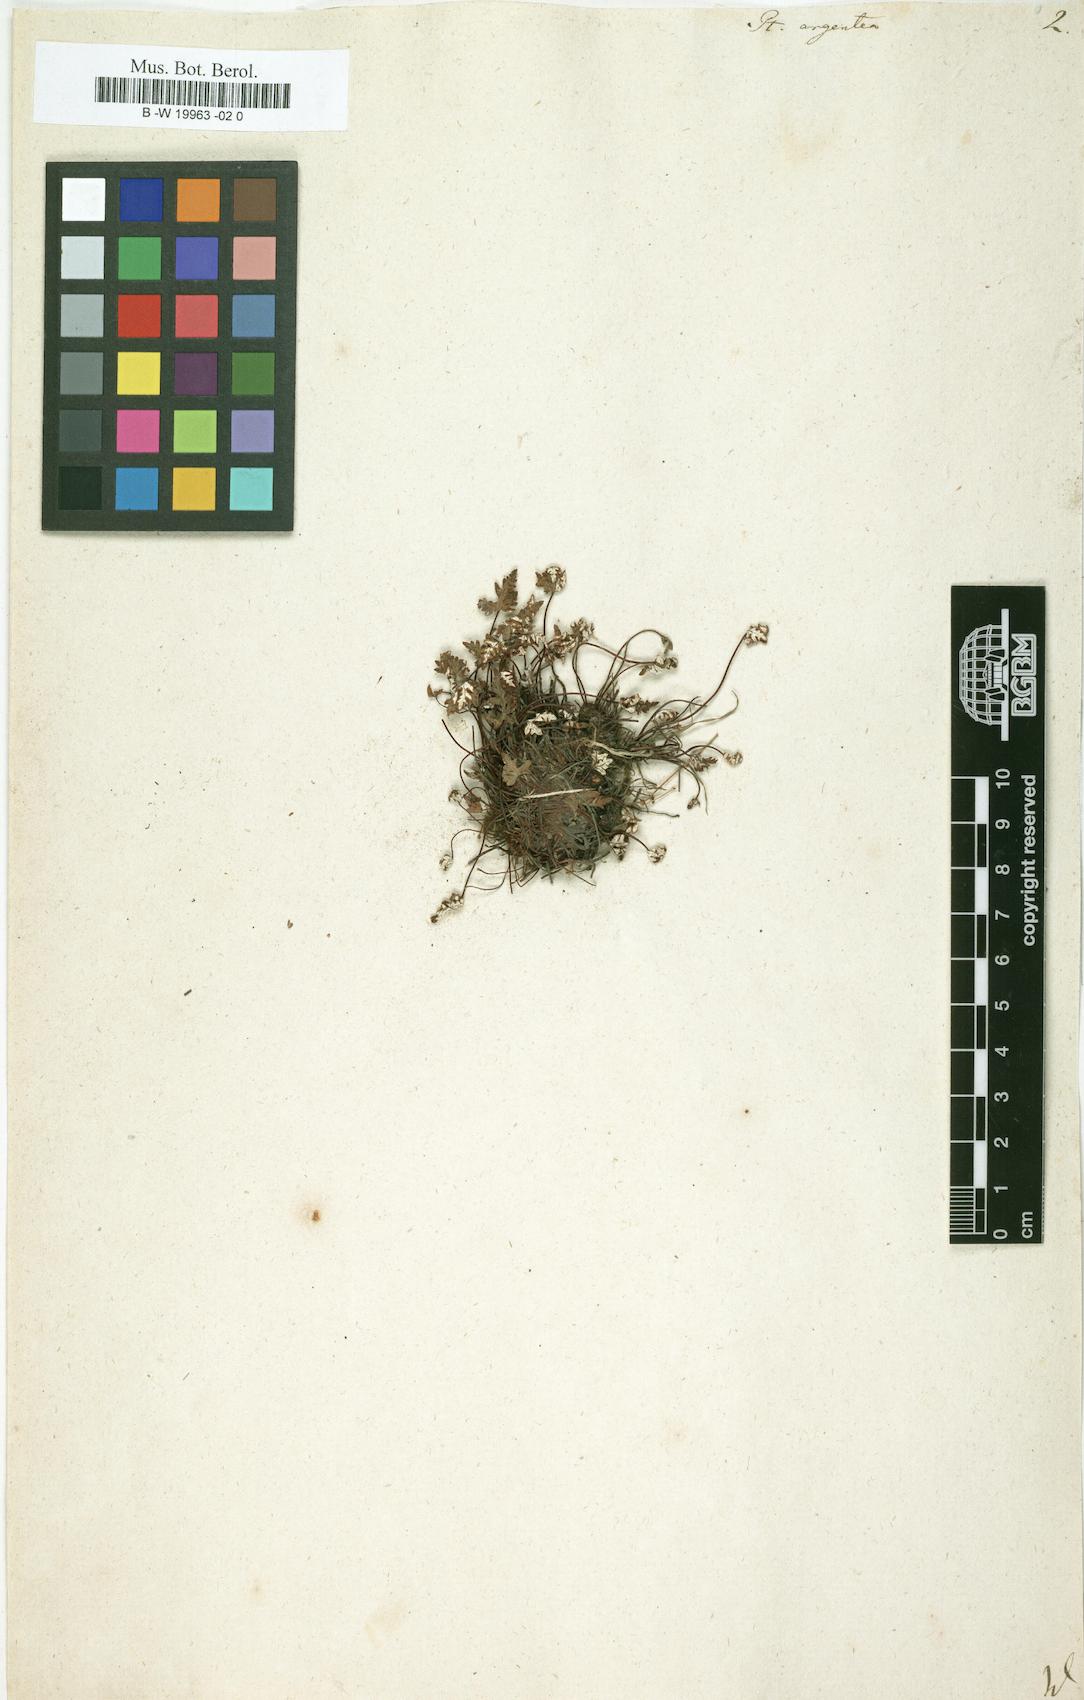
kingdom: Plantae
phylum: Tracheophyta
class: Polypodiopsida
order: Polypodiales
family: Pteridaceae
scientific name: Pteridaceae
